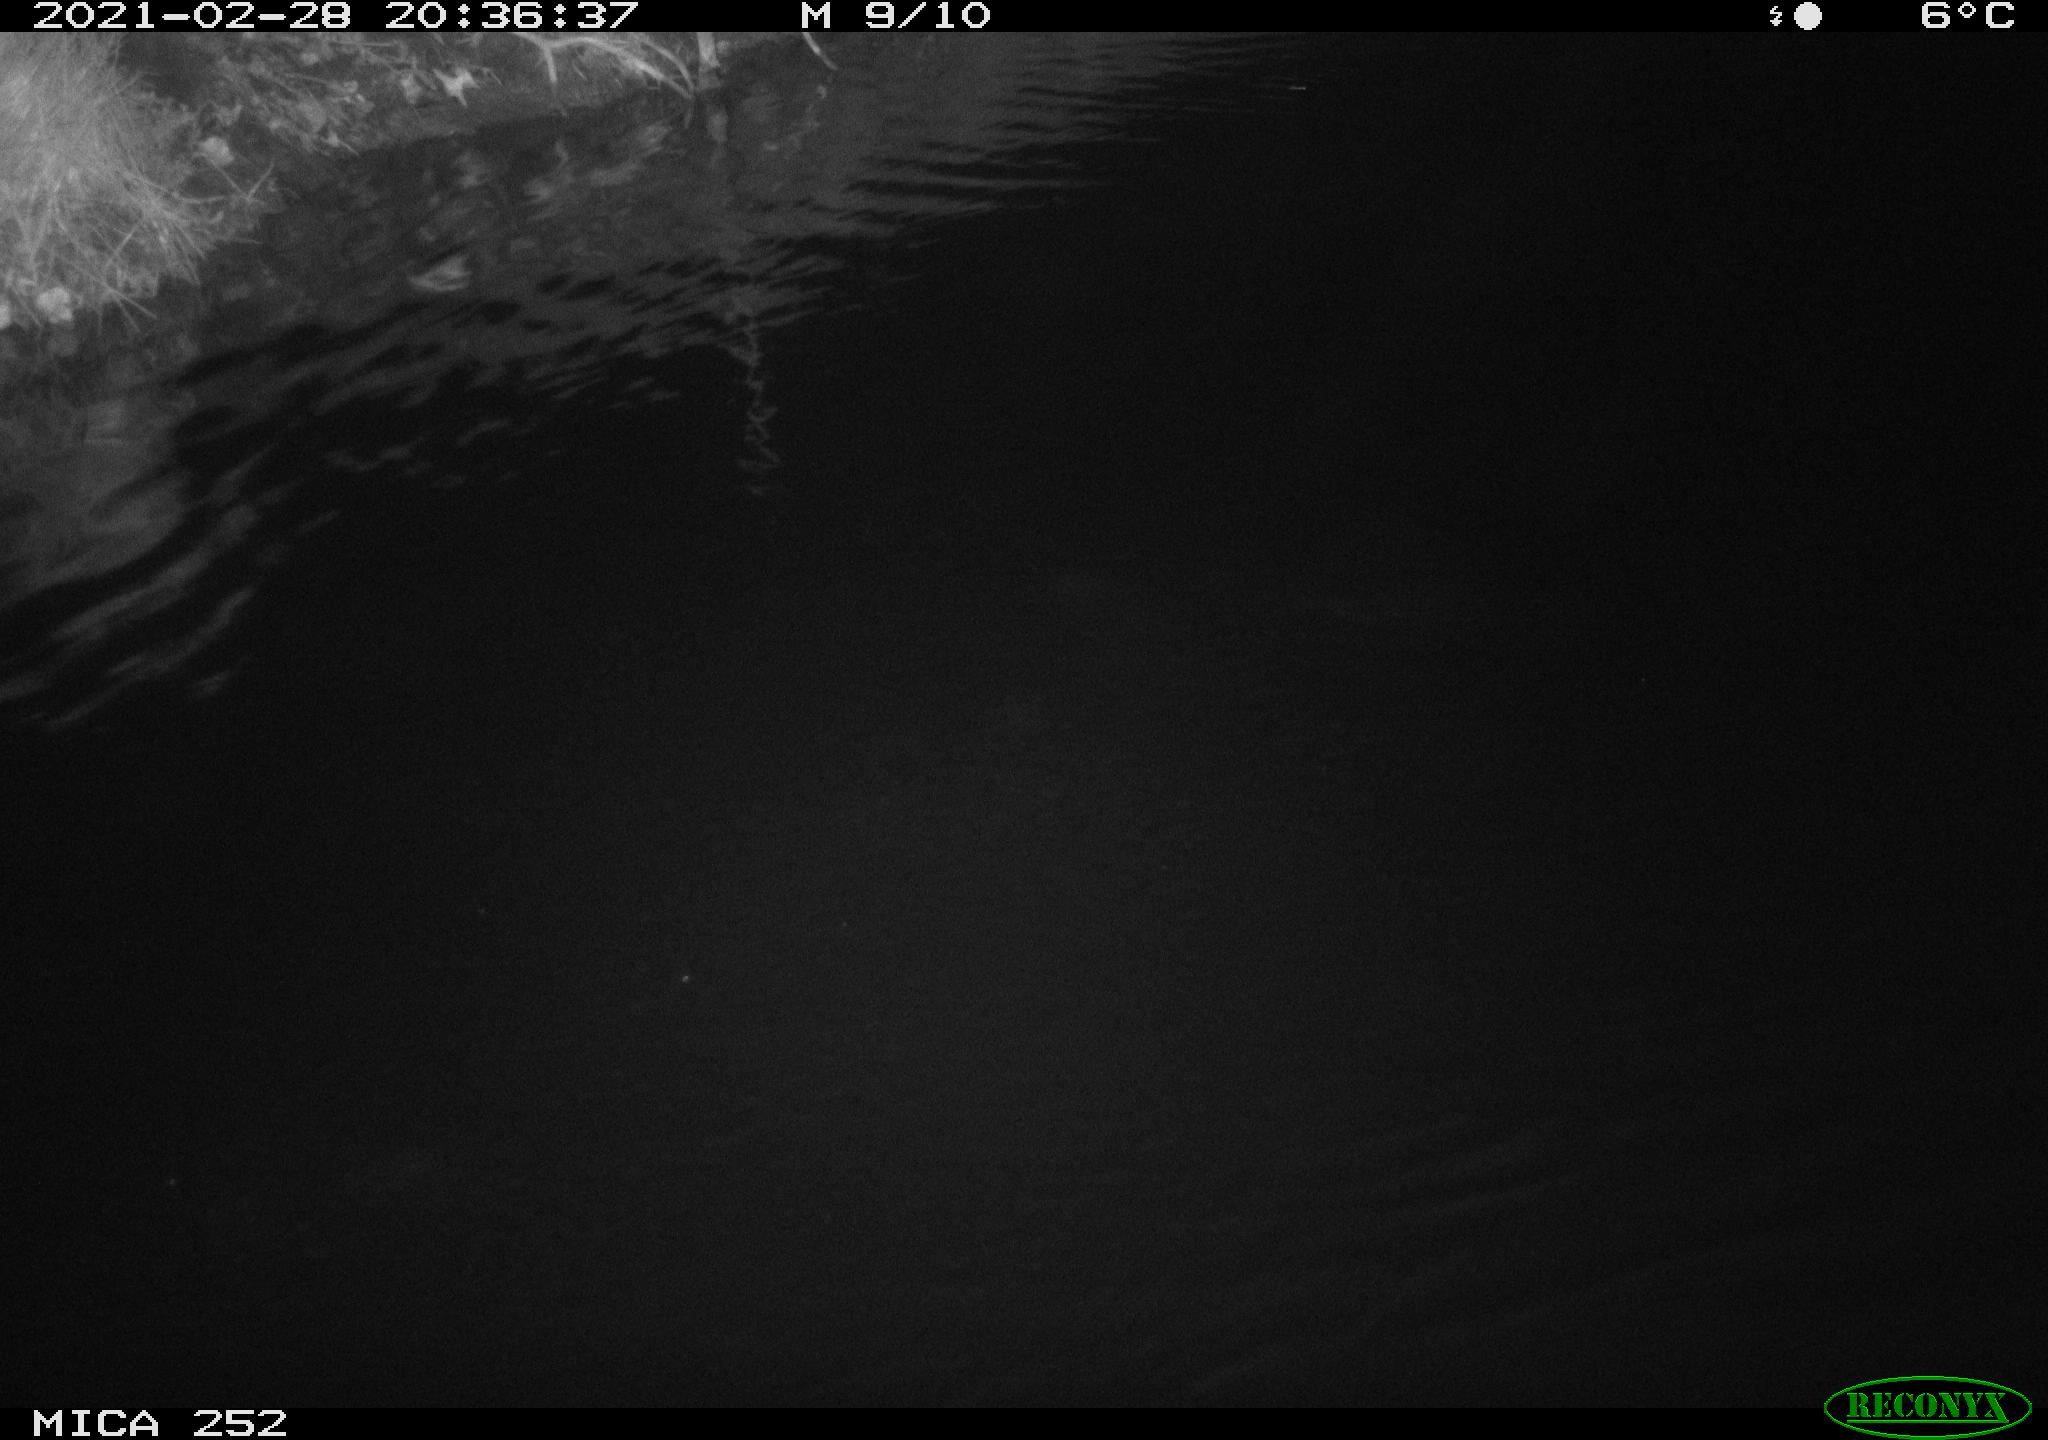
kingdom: Animalia
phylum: Chordata
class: Mammalia
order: Rodentia
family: Castoridae
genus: Castor
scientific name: Castor fiber
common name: Eurasian beaver
